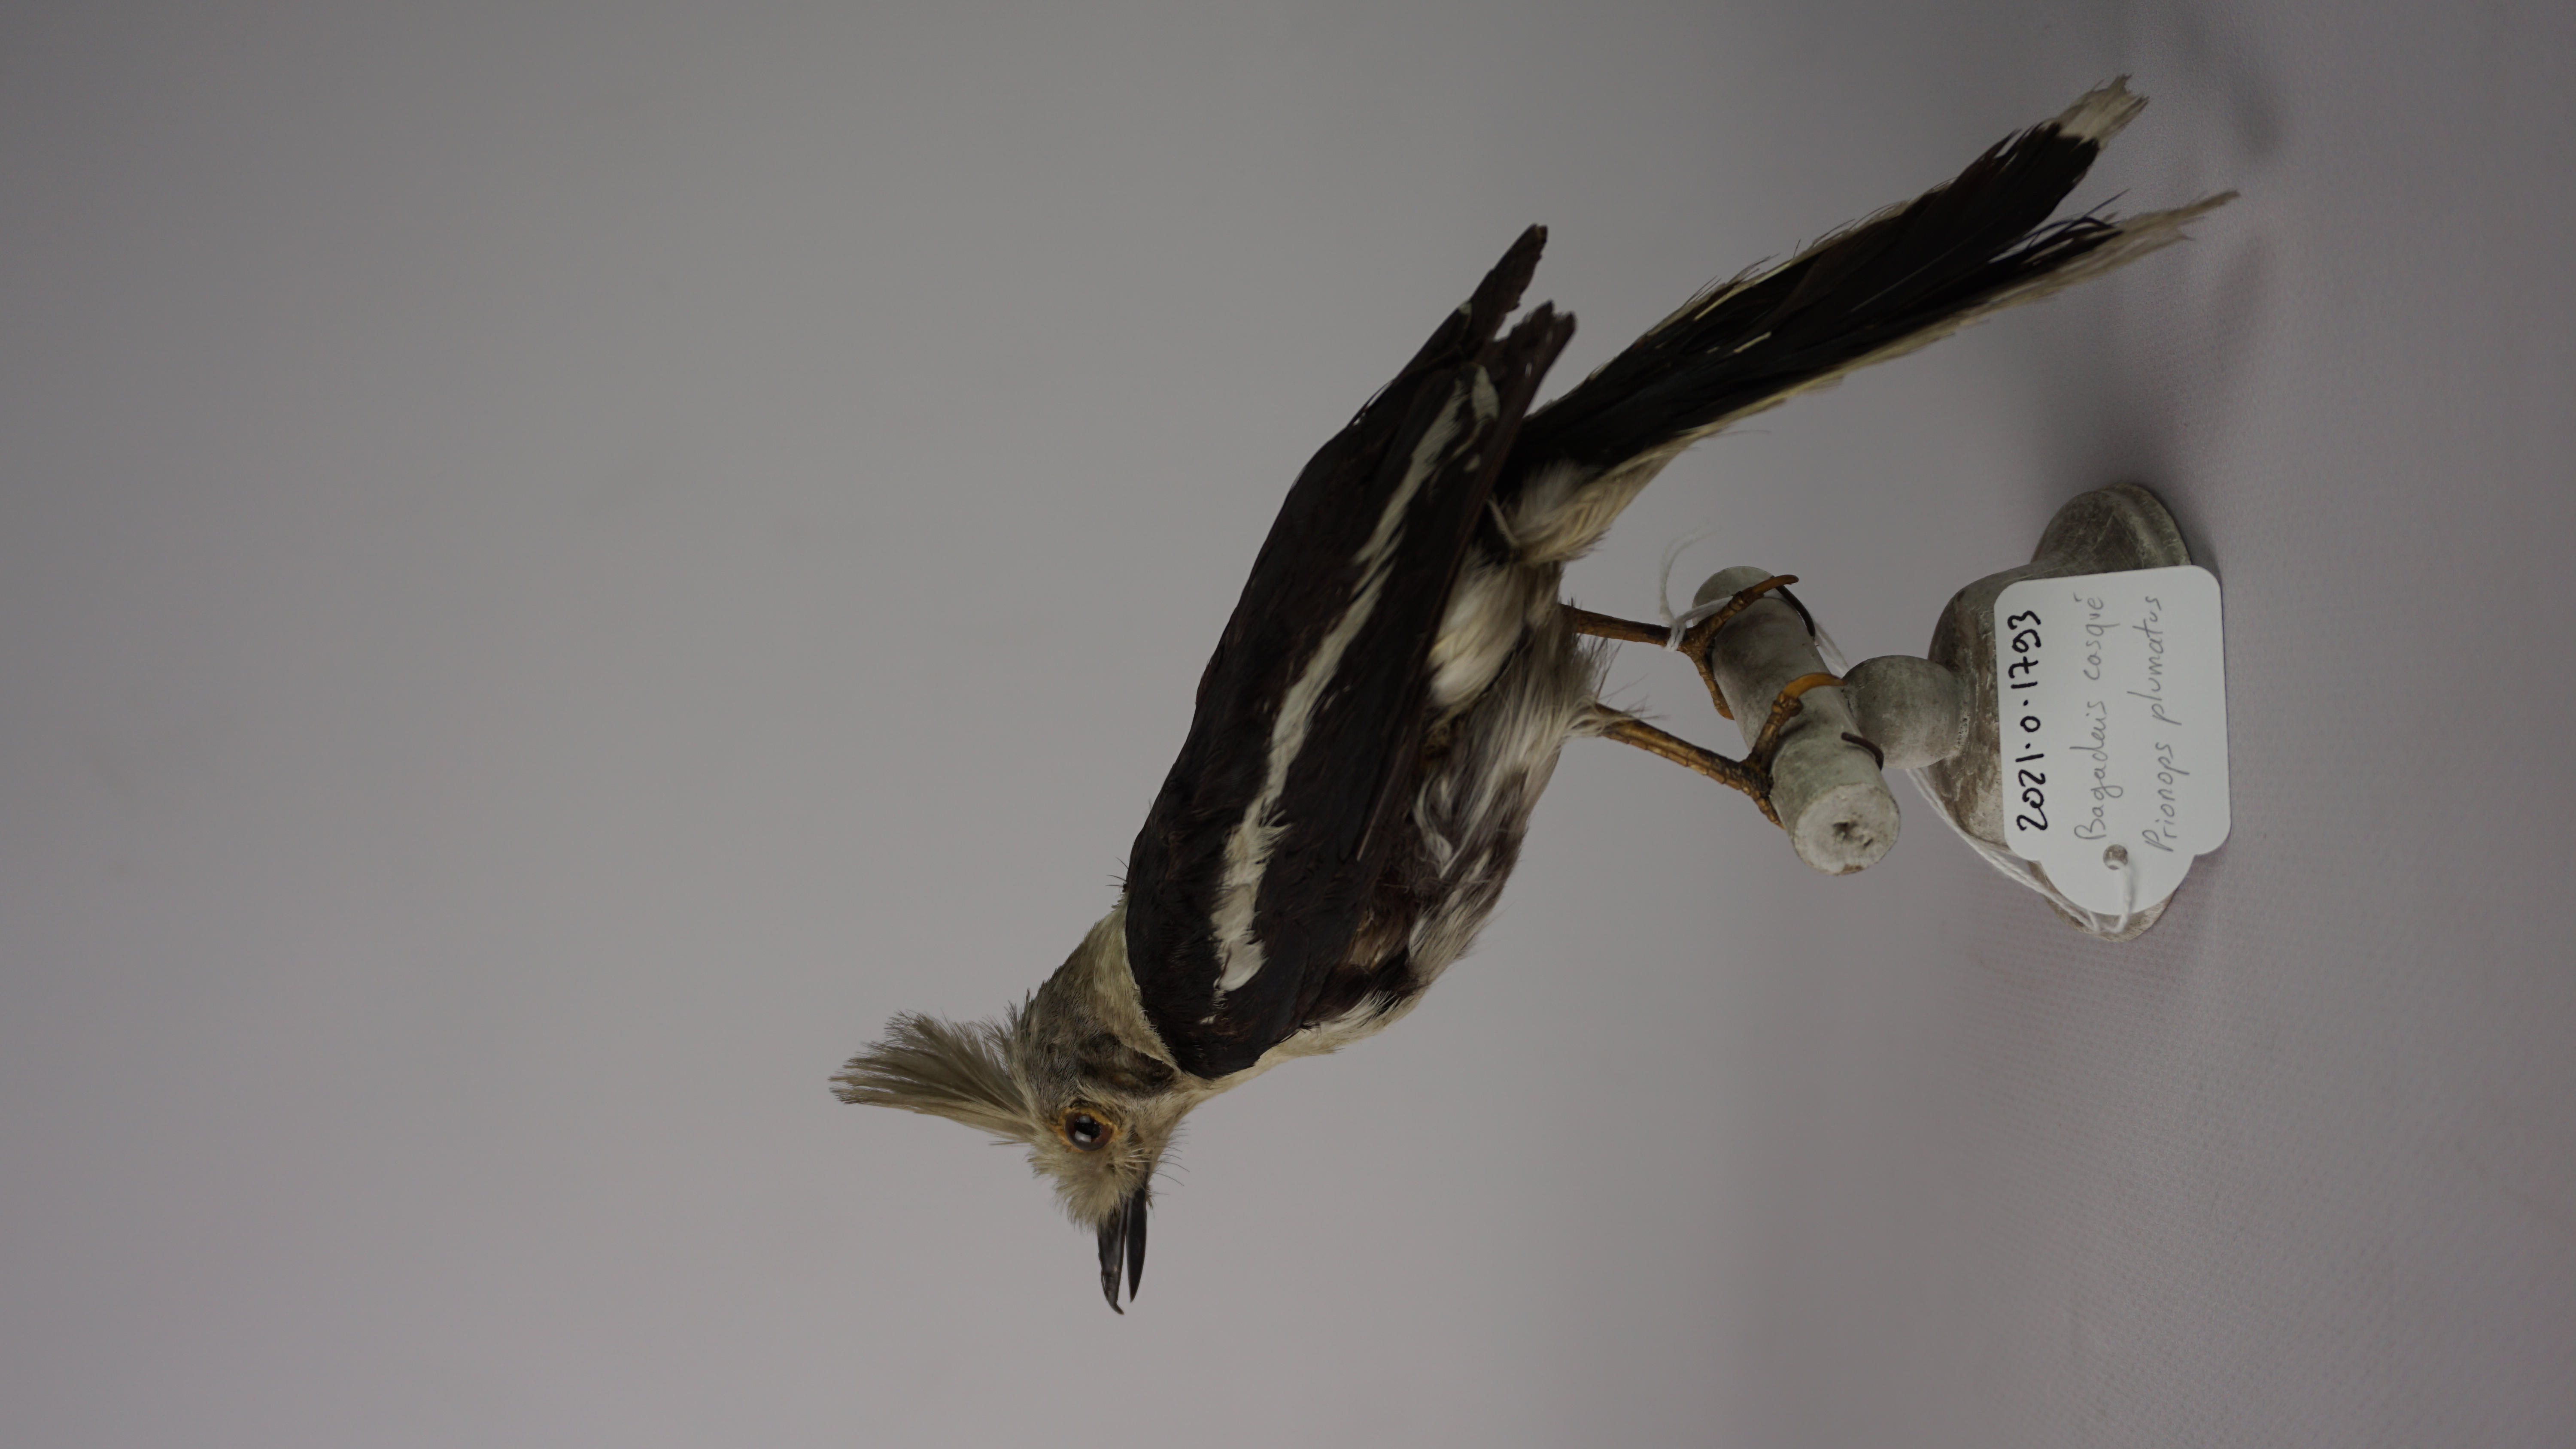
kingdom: Animalia
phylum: Chordata
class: Aves
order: Passeriformes
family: Prionopidae
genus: Prionops
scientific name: Prionops plumatus
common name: White-crested helmetshrike
